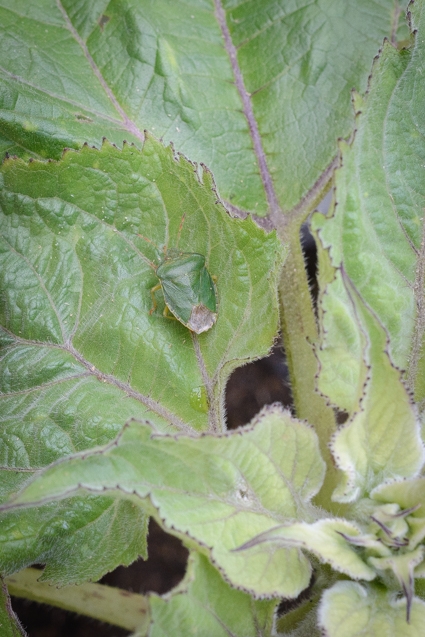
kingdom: Animalia
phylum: Arthropoda
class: Insecta
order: Hemiptera
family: Pentatomidae
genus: Palomena
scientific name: Palomena prasina
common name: Grøn bredtæge
